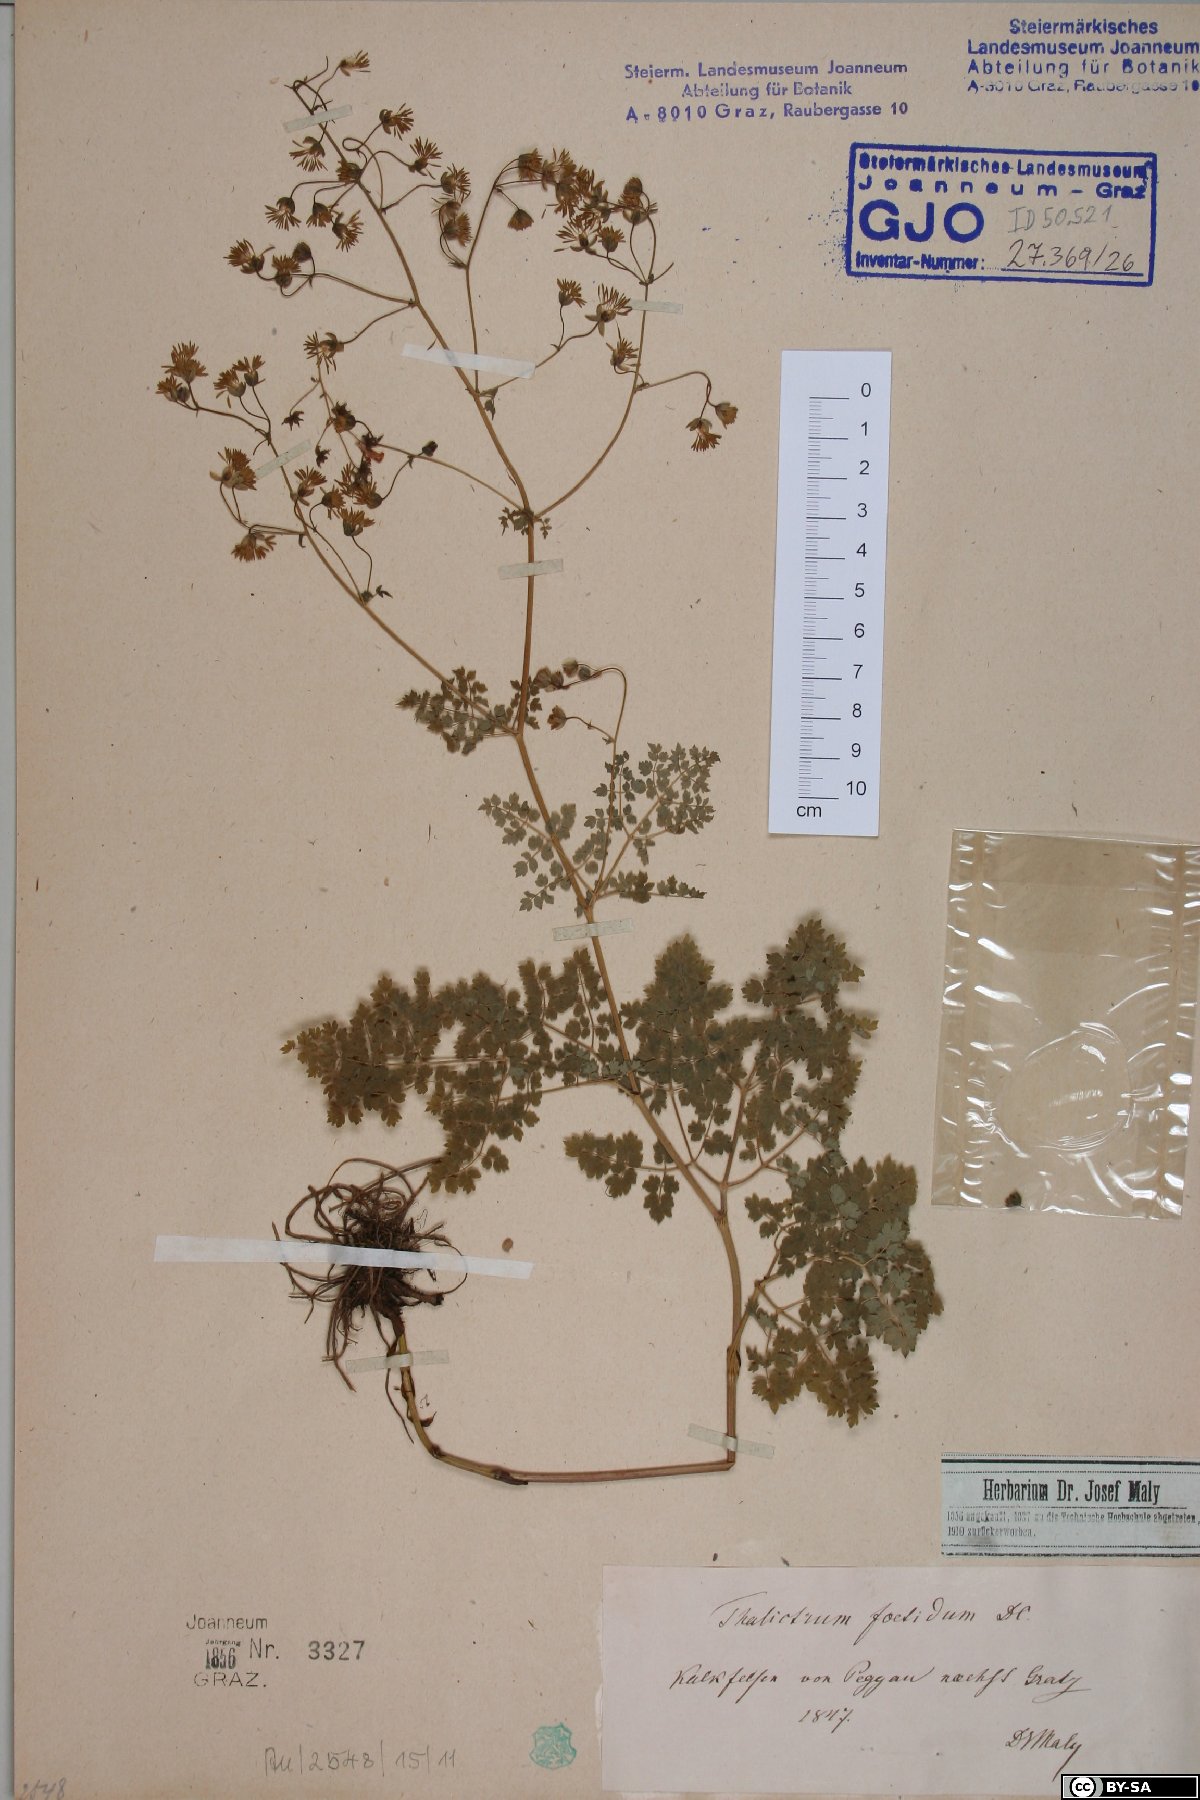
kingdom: Plantae
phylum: Tracheophyta
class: Magnoliopsida
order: Ranunculales
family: Ranunculaceae
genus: Thalictrum
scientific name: Thalictrum foetidum
